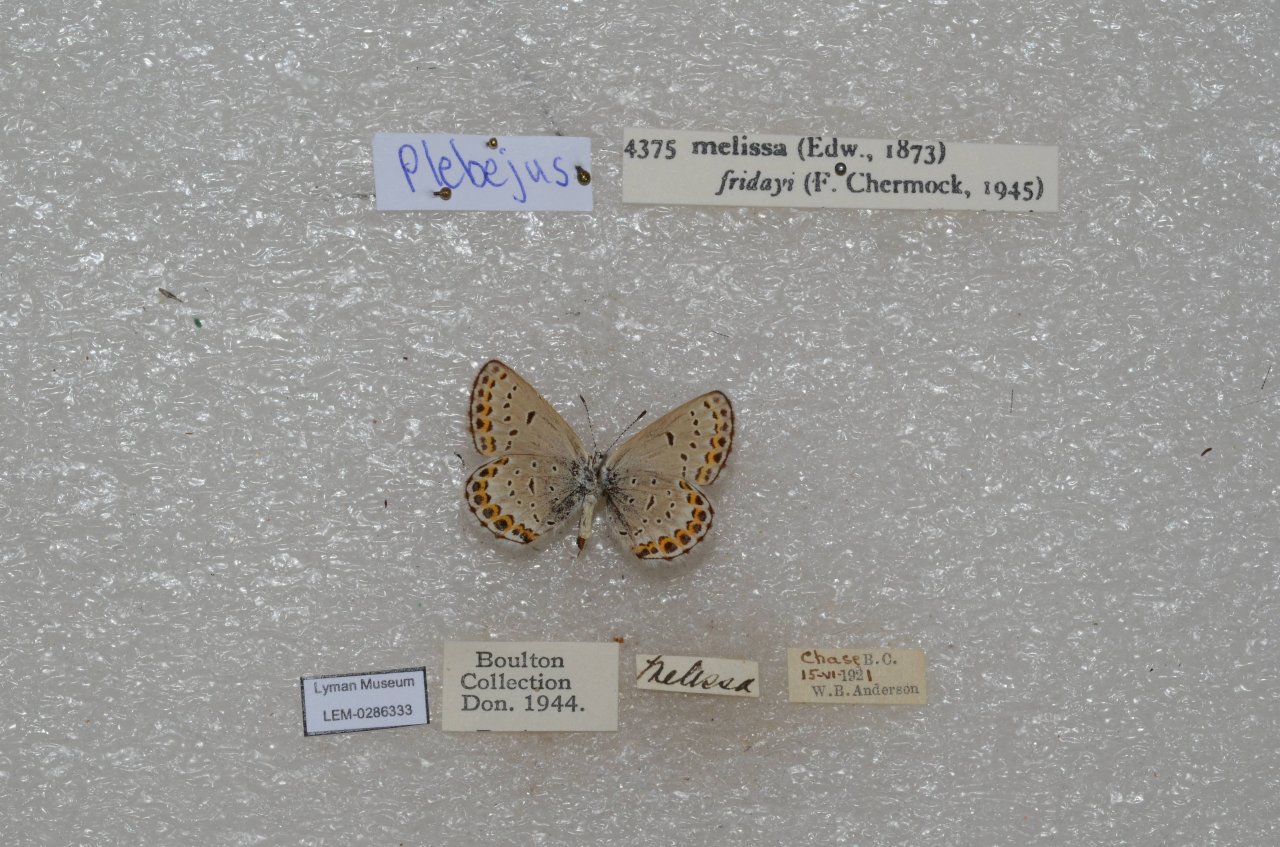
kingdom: Animalia
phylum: Arthropoda
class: Insecta
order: Lepidoptera
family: Lycaenidae
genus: Lycaeides
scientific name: Lycaeides melissa
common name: Melissa Blue
